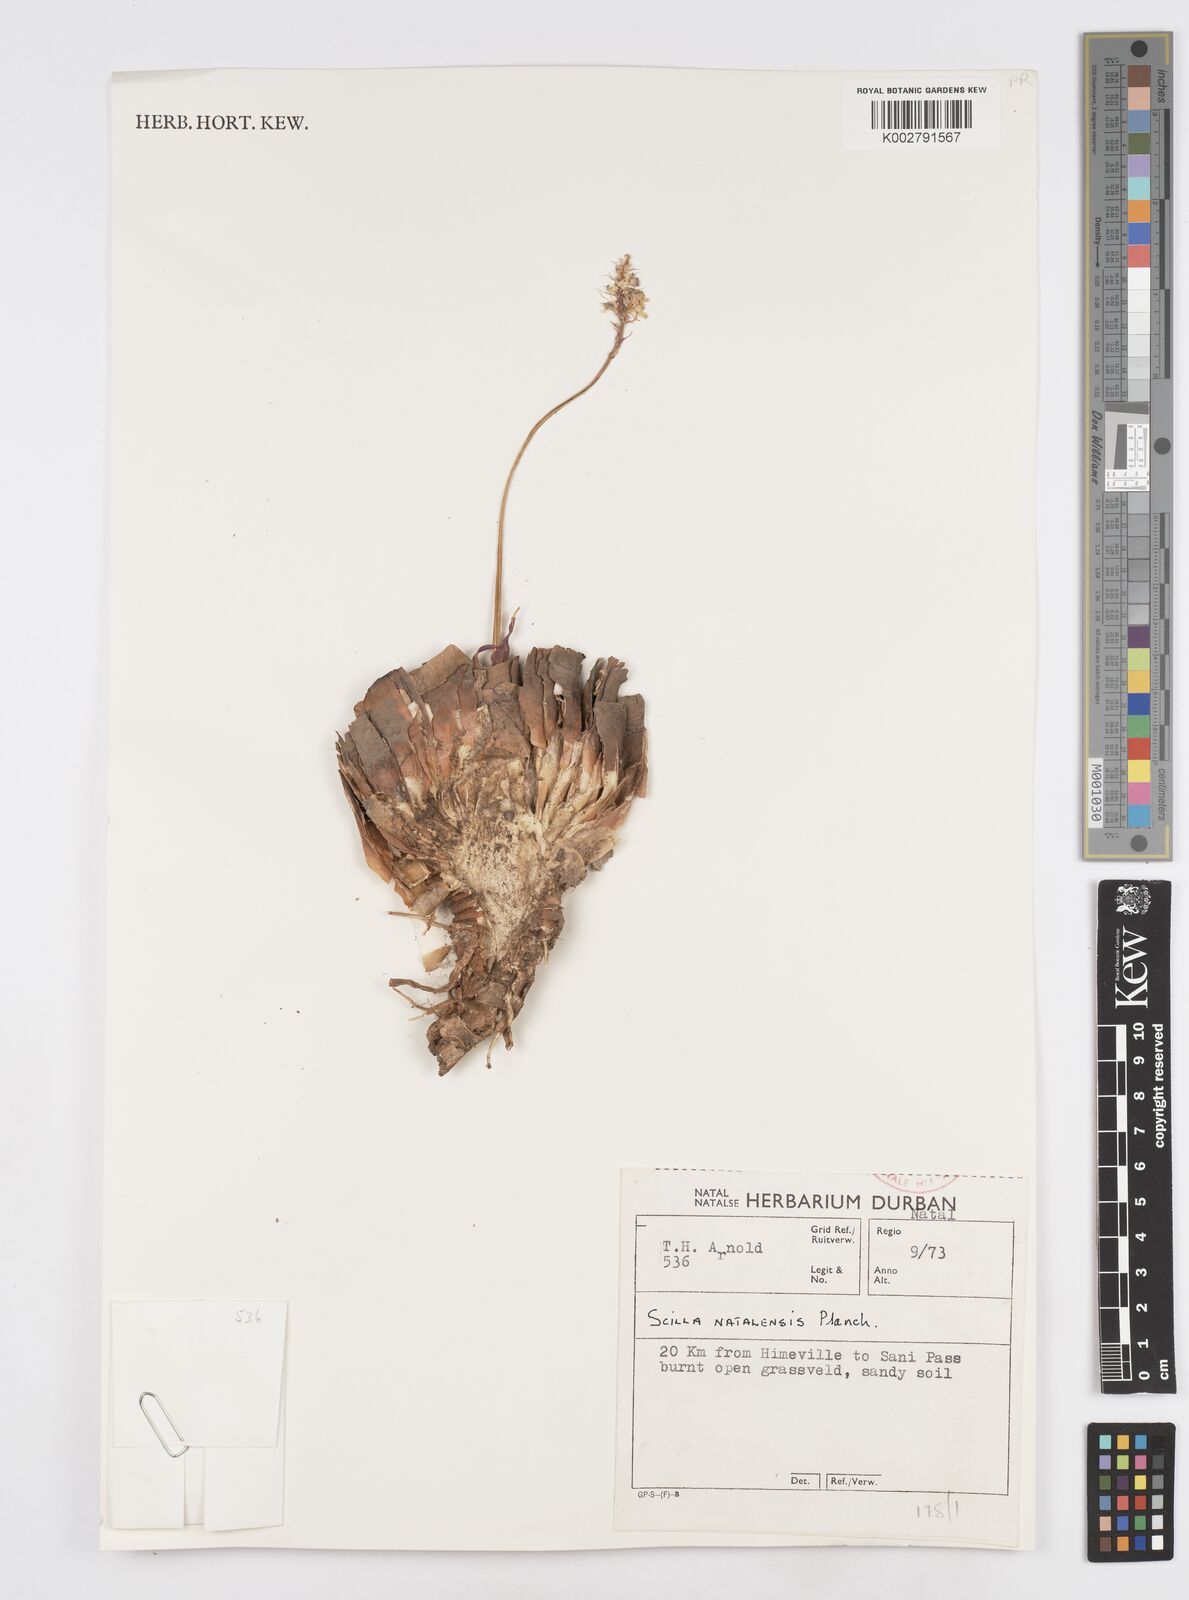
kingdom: Plantae
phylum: Tracheophyta
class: Liliopsida
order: Asparagales
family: Asparagaceae
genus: Merwilla
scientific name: Merwilla plumbea
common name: Blue-squill
